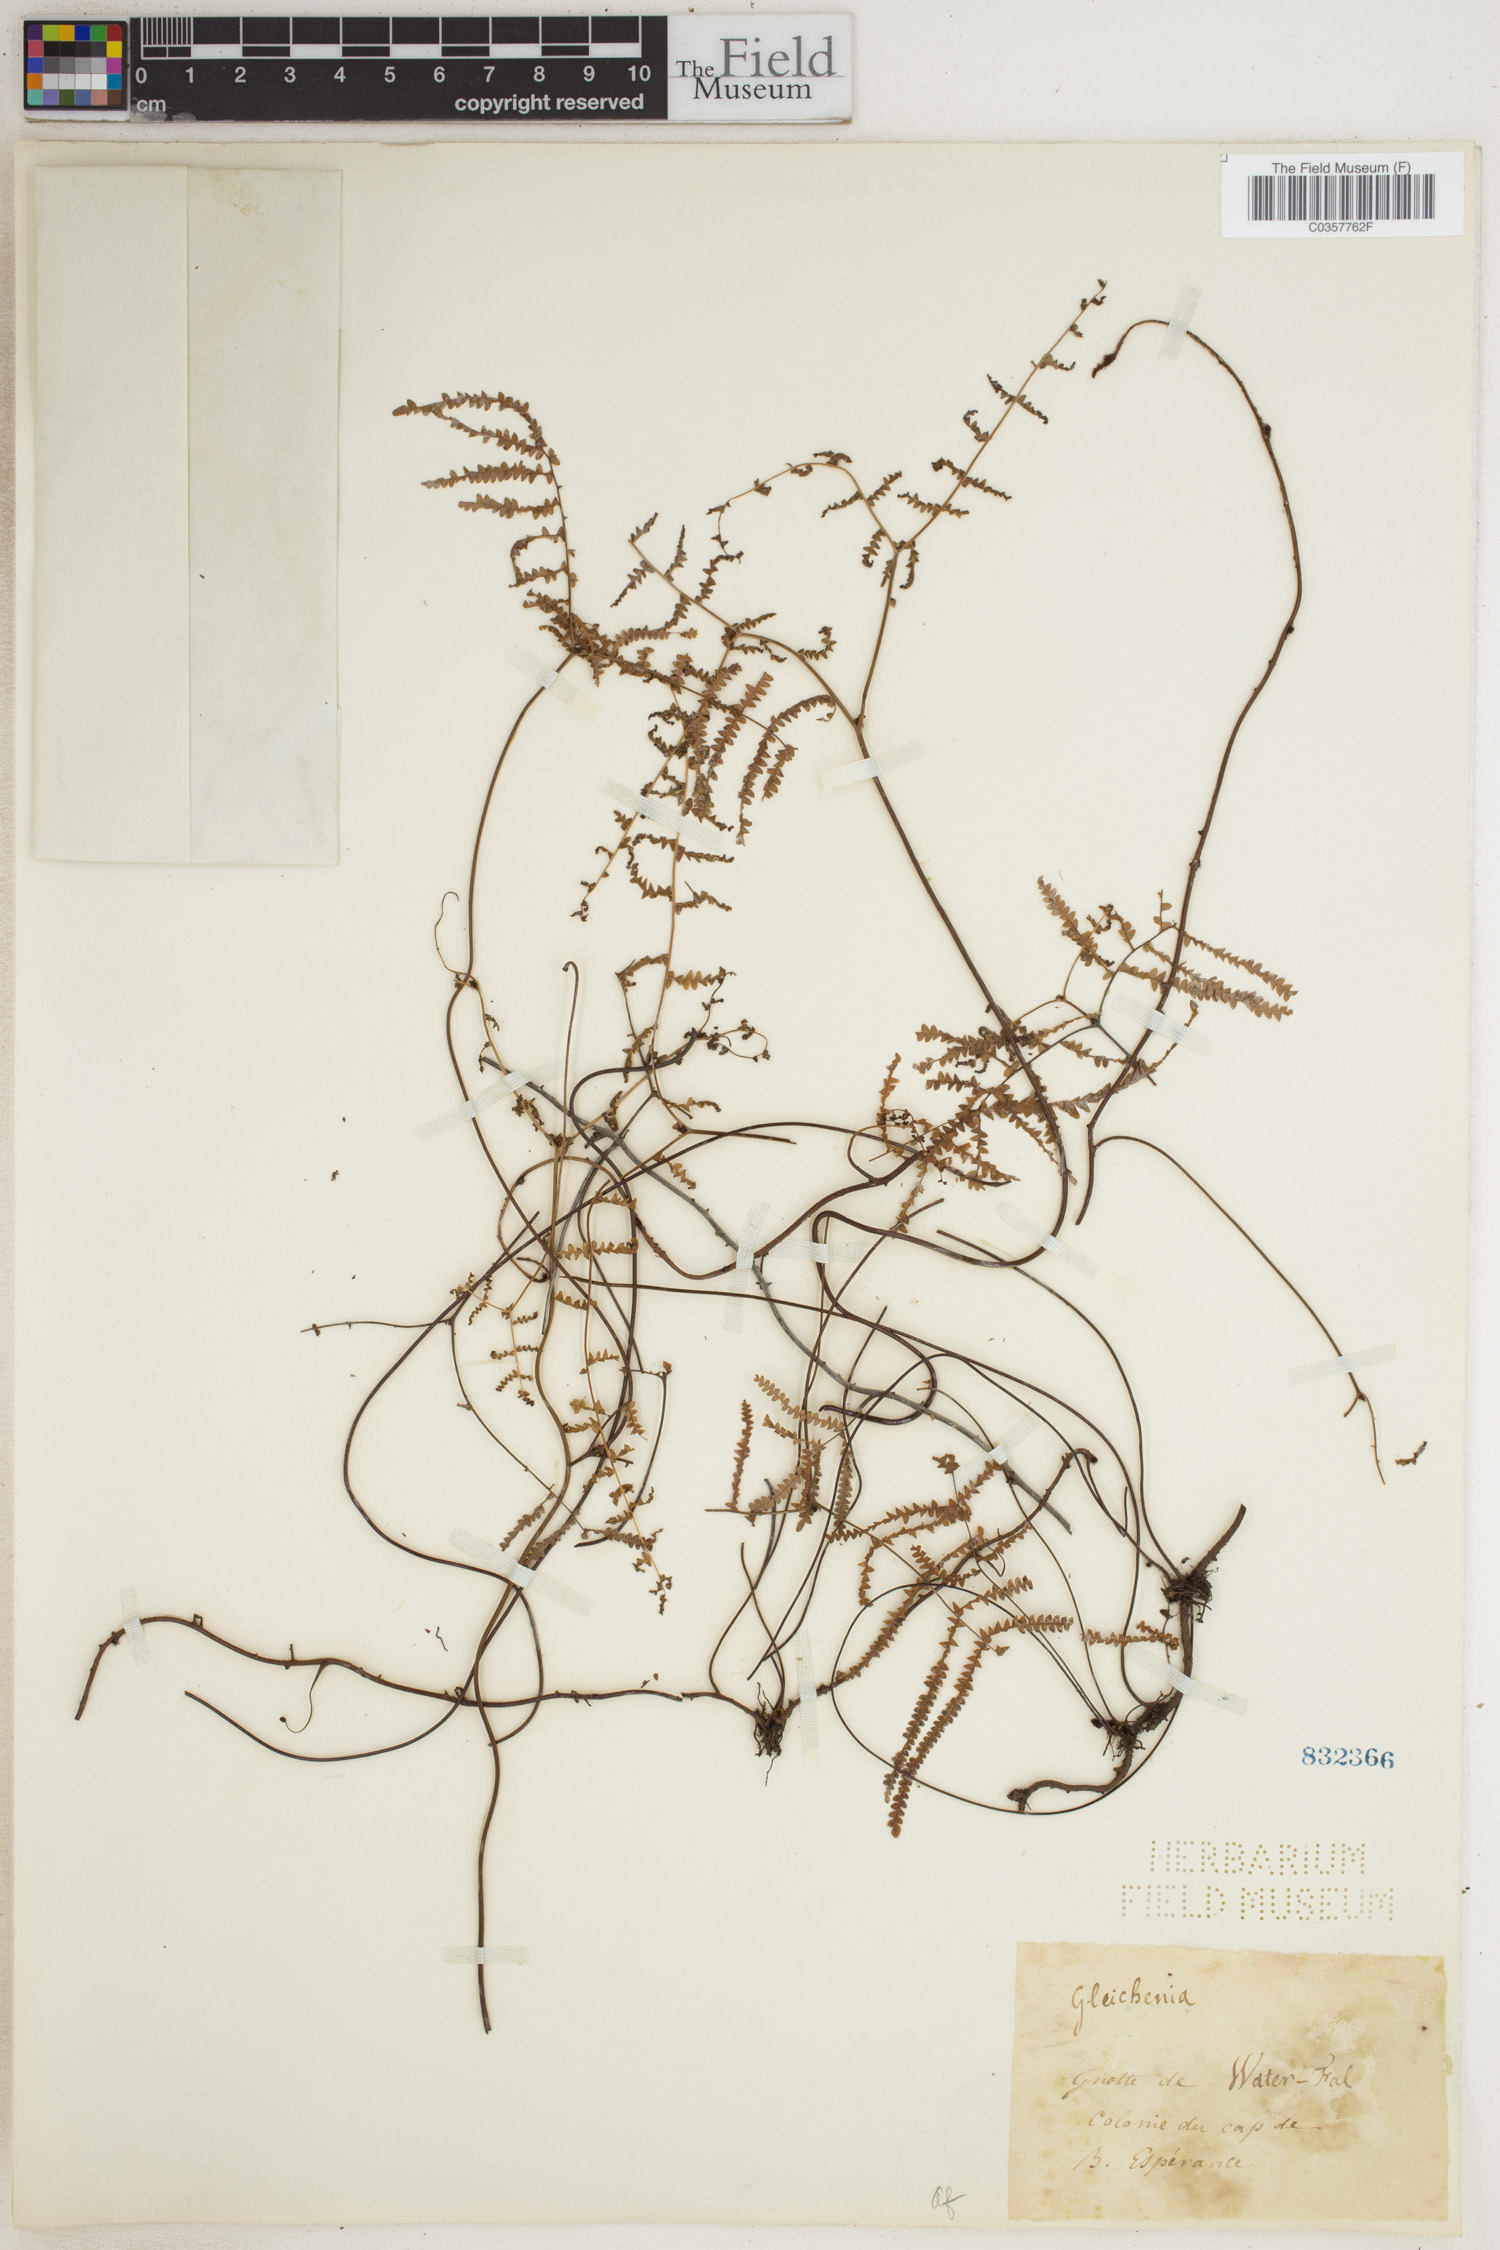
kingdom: Plantae
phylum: Tracheophyta
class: Polypodiopsida
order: Gleicheniales
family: Gleicheniaceae
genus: Gleichenia
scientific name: Gleichenia polypodioides
